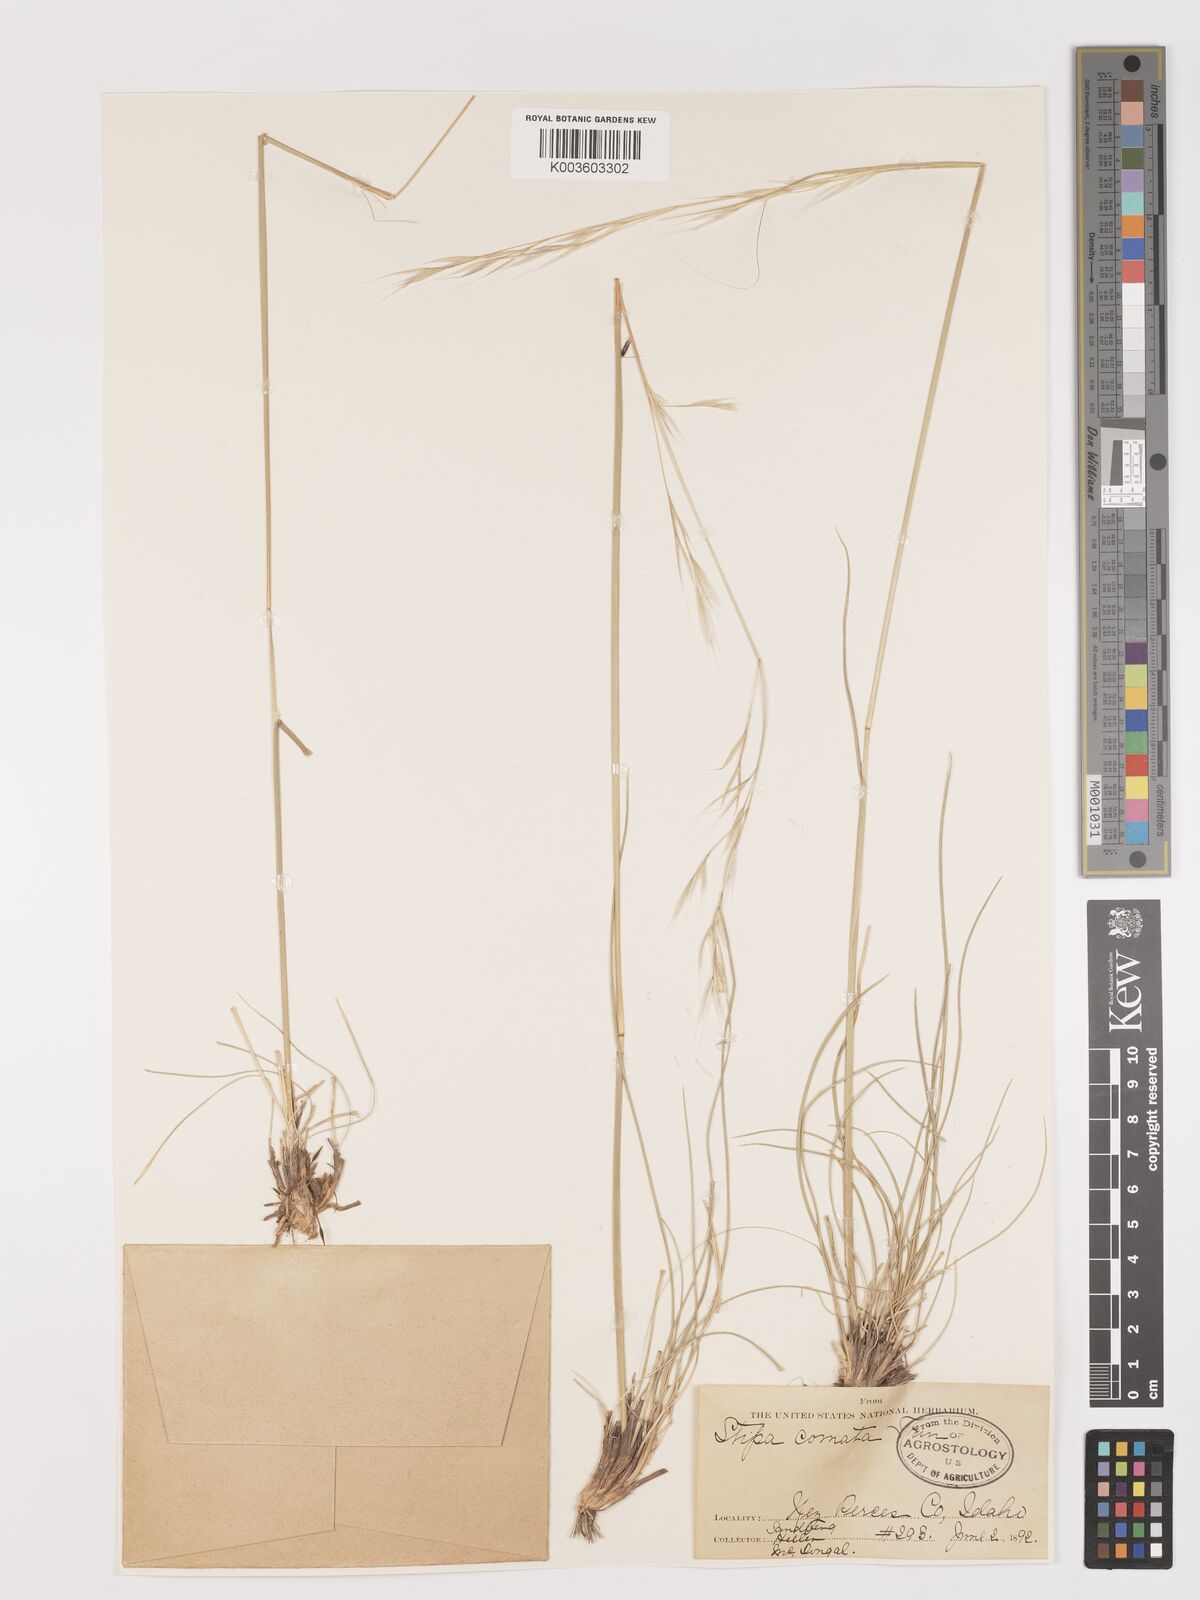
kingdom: Plantae
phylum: Tracheophyta
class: Liliopsida
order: Poales
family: Poaceae
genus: Stipa
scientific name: Stipa
